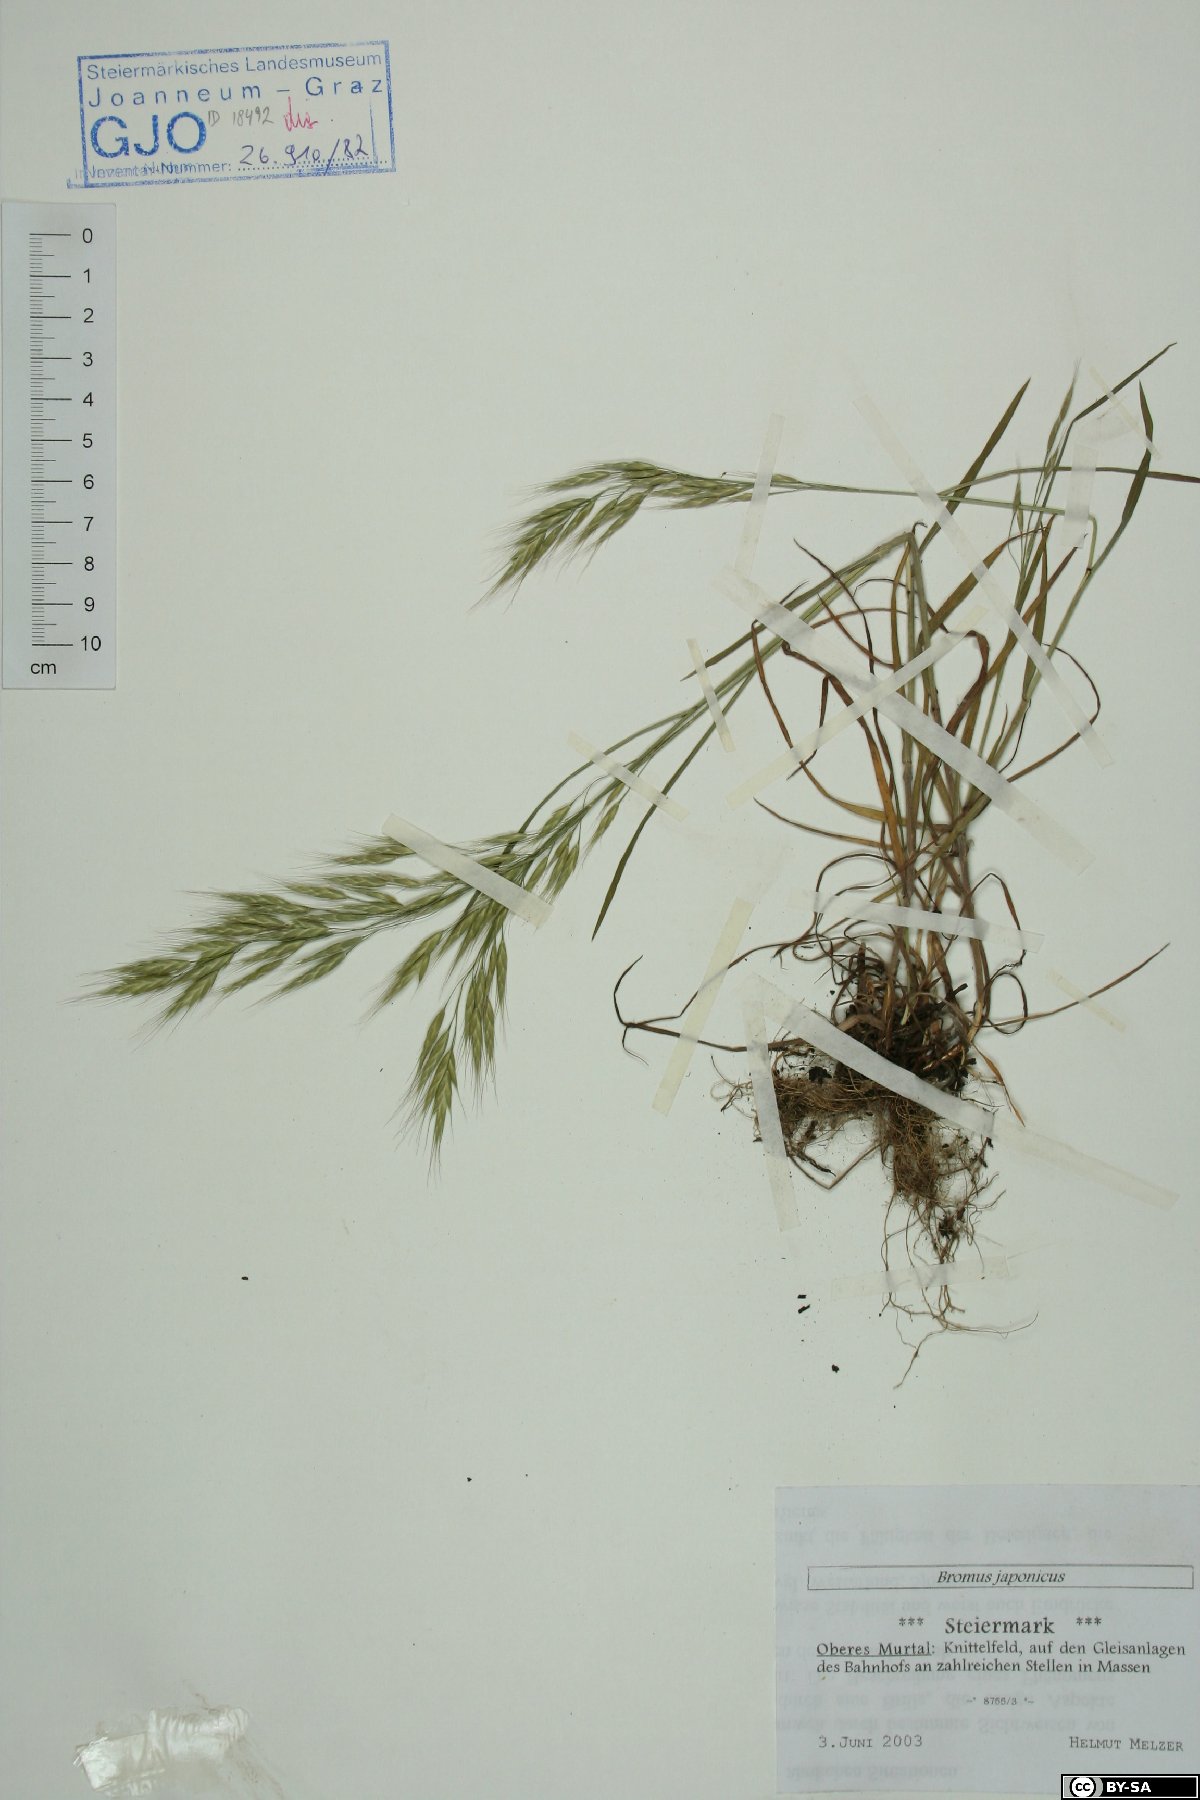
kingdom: Plantae
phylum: Tracheophyta
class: Liliopsida
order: Poales
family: Poaceae
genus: Bromus
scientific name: Bromus japonicus
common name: Japanese brome
